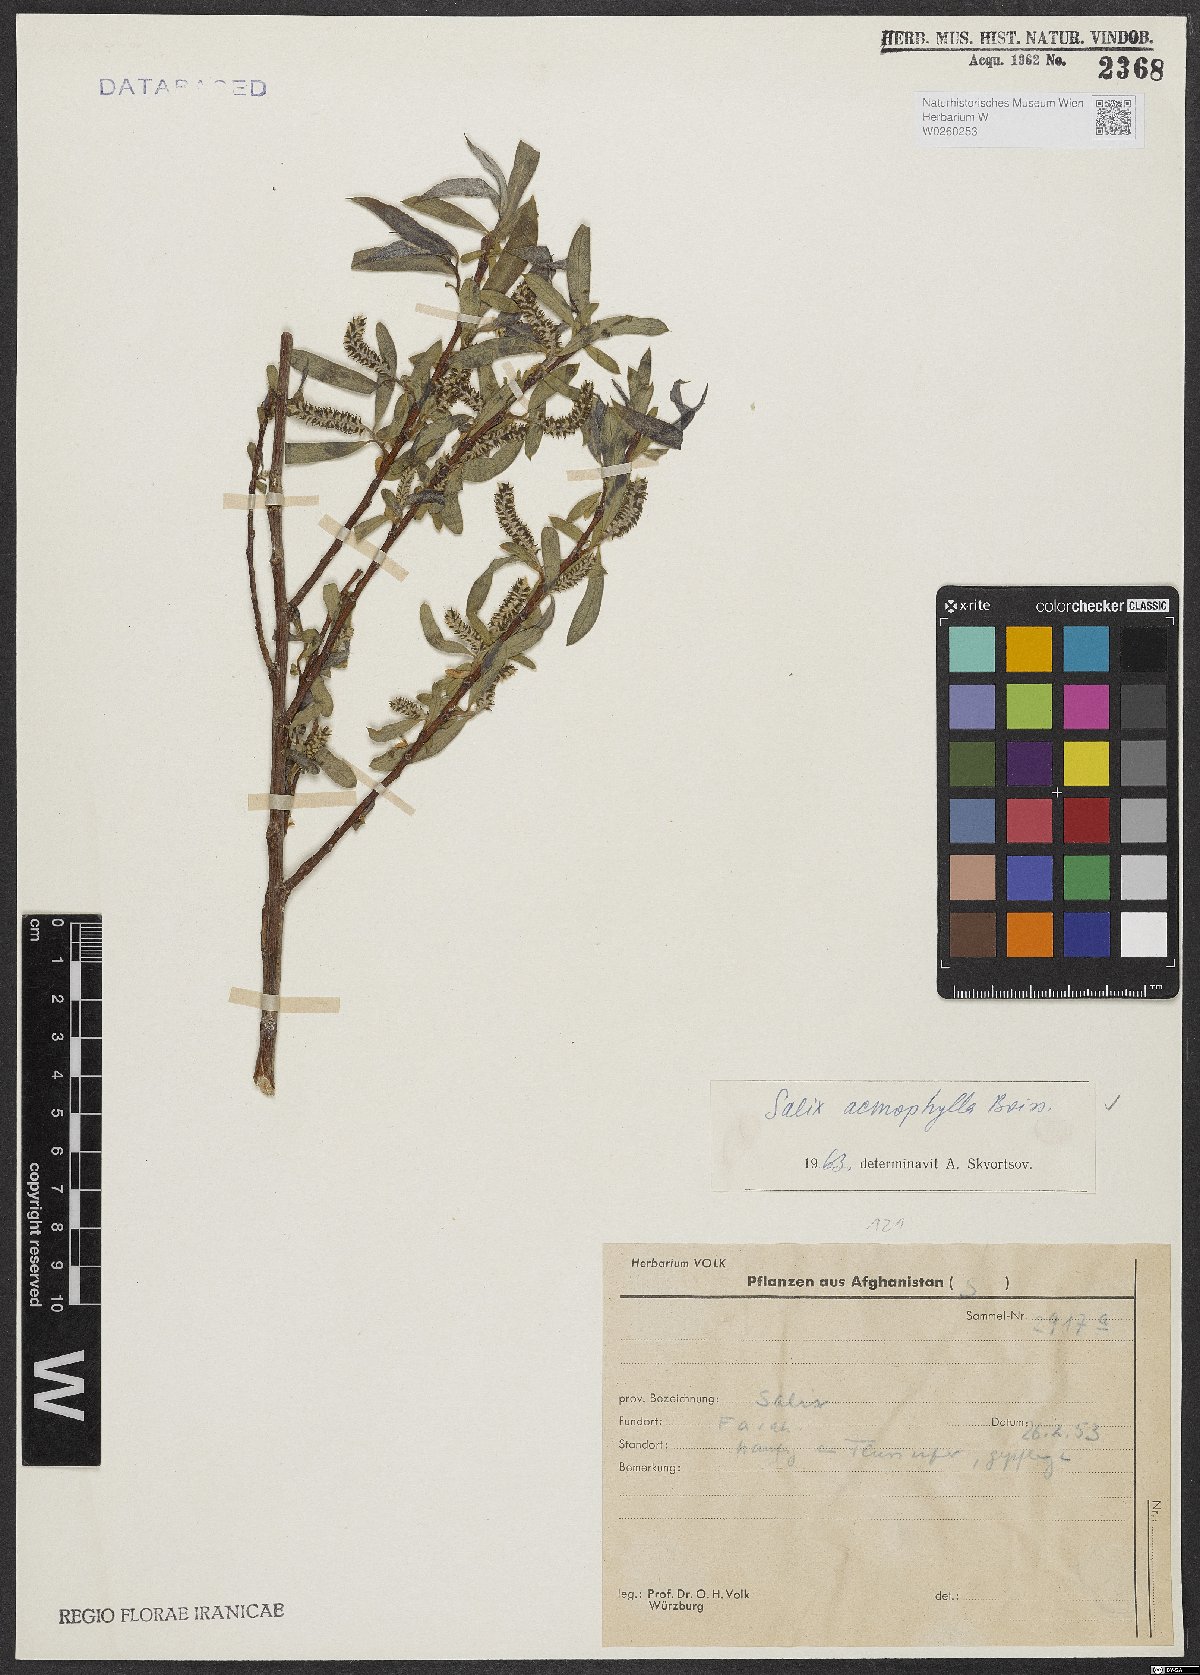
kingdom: Plantae
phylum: Tracheophyta
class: Magnoliopsida
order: Malpighiales
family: Salicaceae
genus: Salix
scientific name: Salix acmophylla
